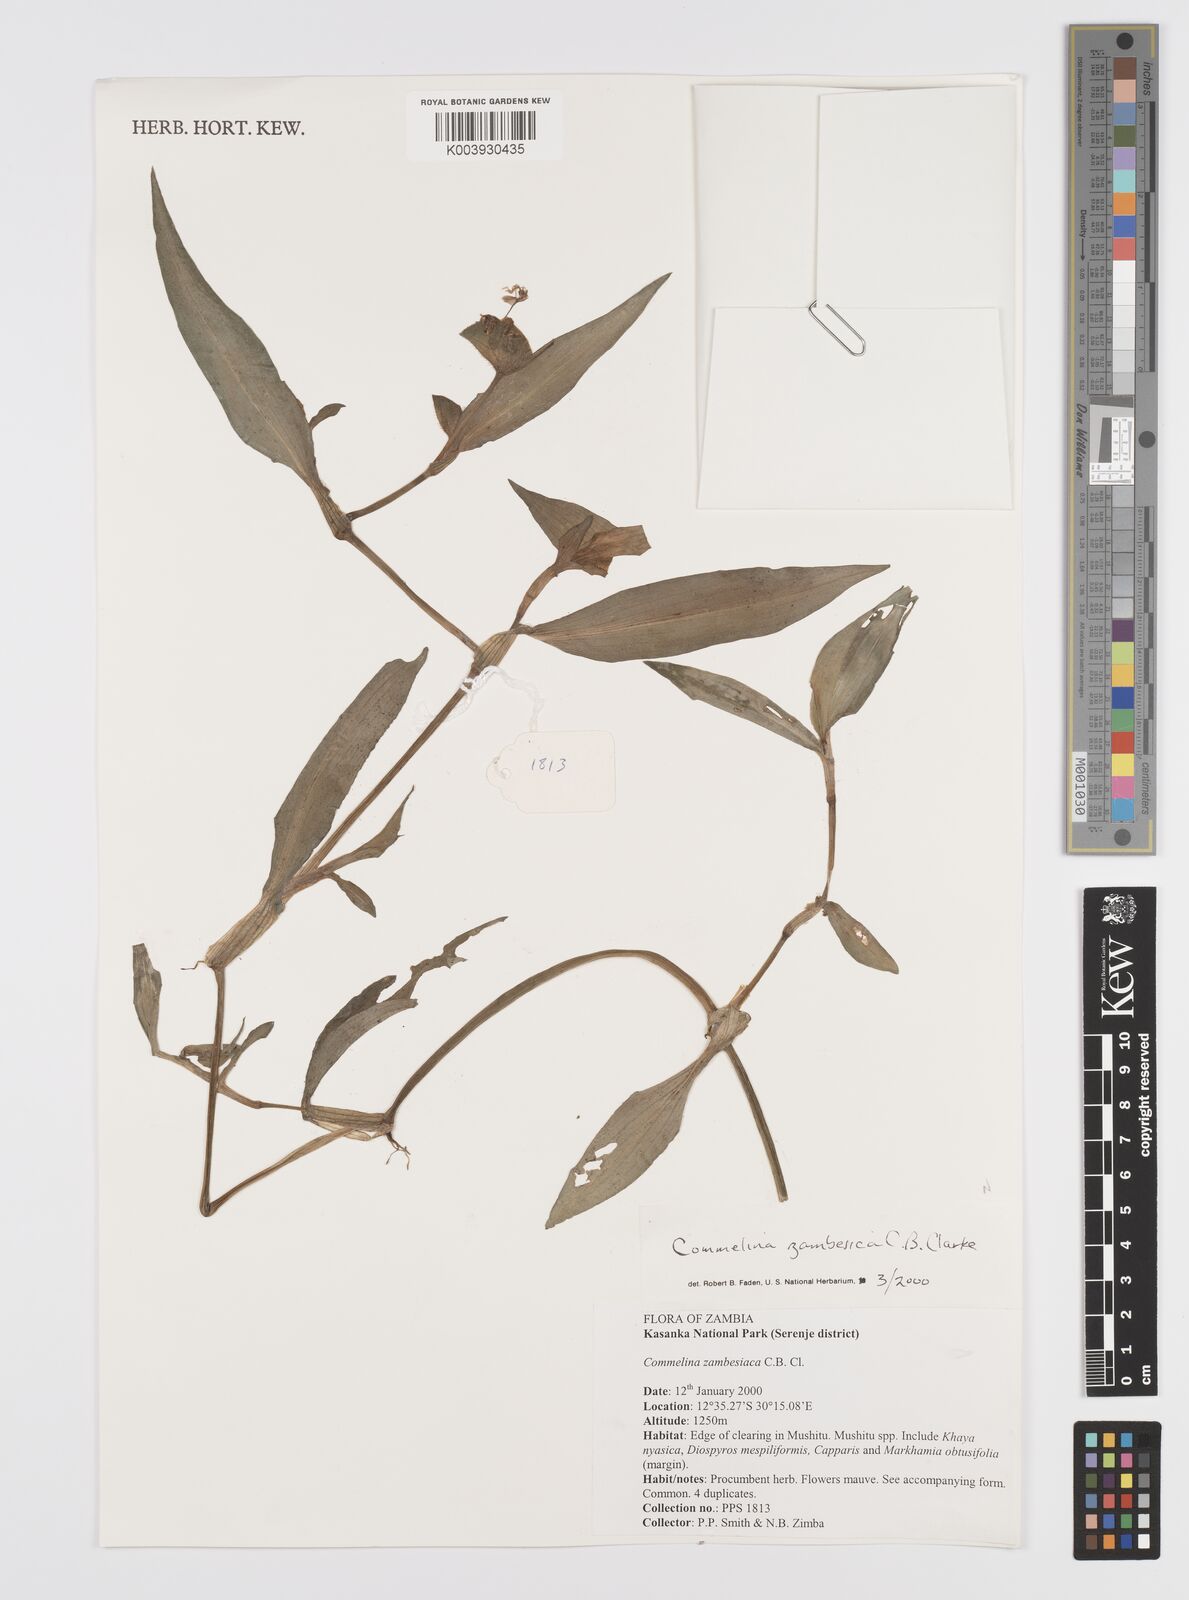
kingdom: Plantae
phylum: Tracheophyta
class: Liliopsida
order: Commelinales
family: Commelinaceae
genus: Commelina
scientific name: Commelina zambesica
